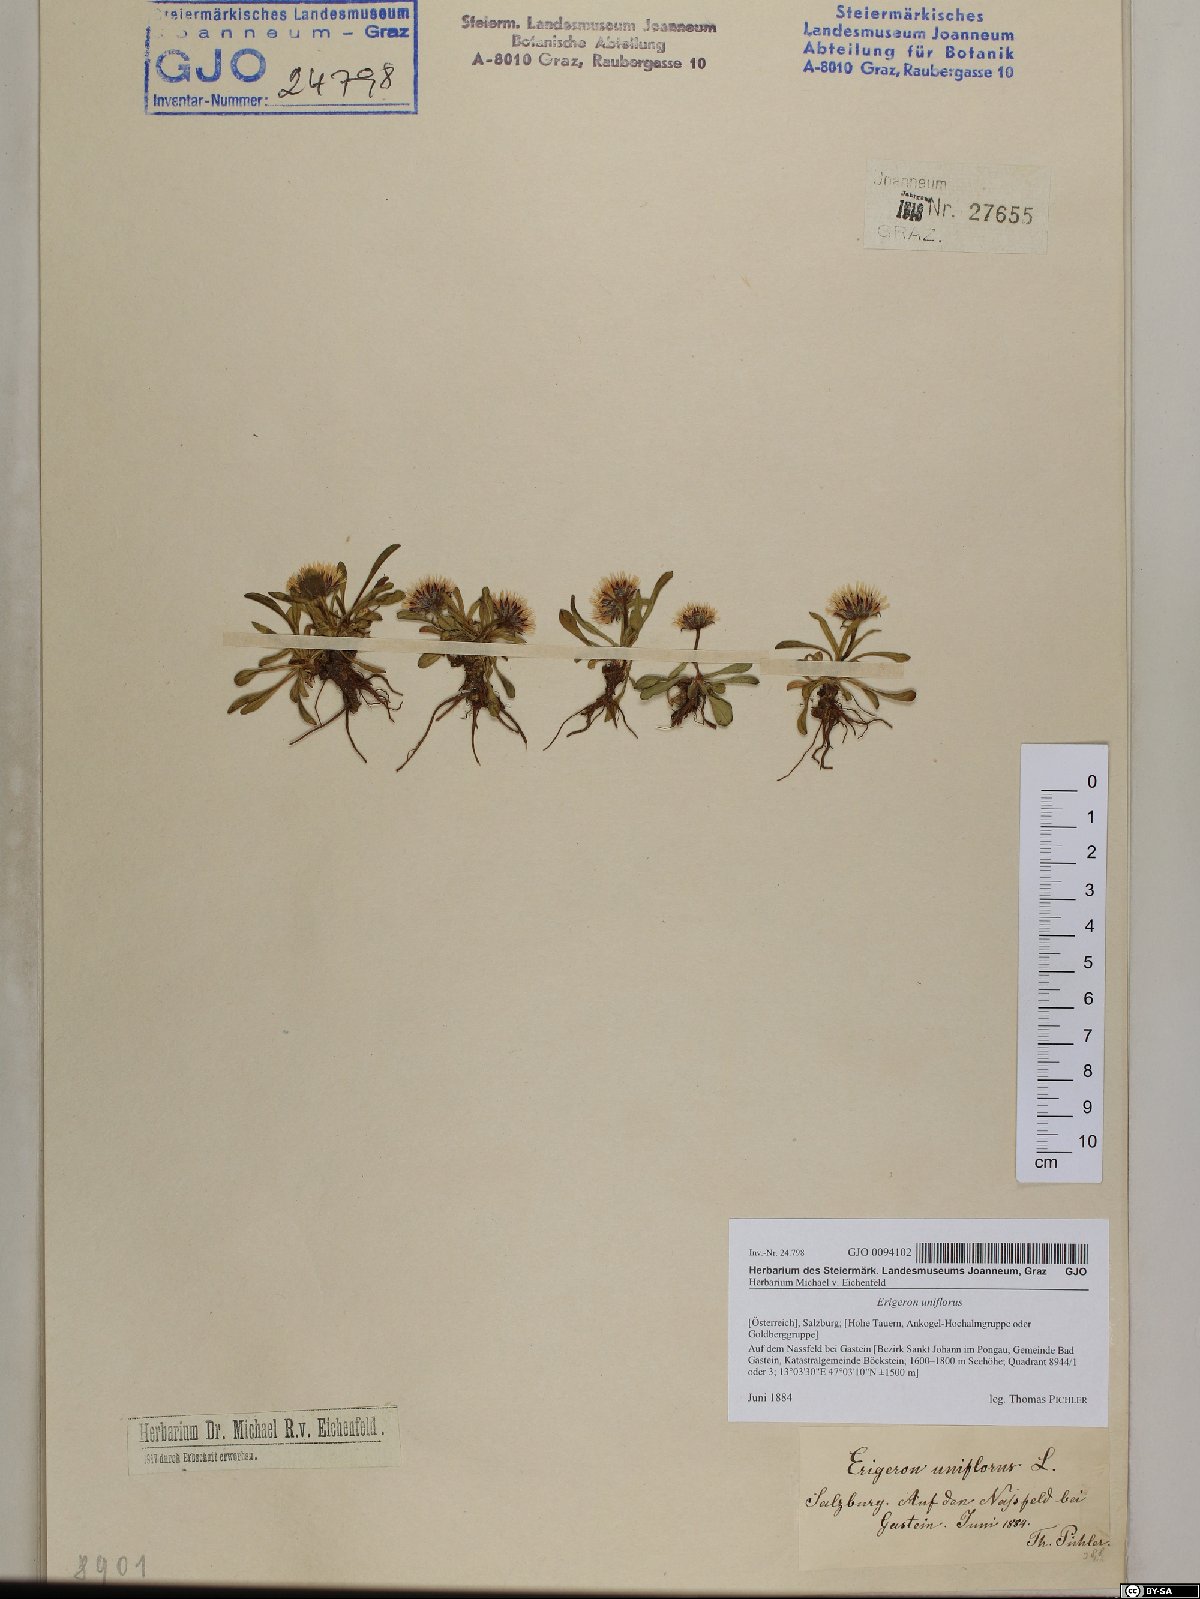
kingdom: Plantae
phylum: Tracheophyta
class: Magnoliopsida
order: Asterales
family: Asteraceae
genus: Erigeron
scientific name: Erigeron uniflorus
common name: Northern daisy
